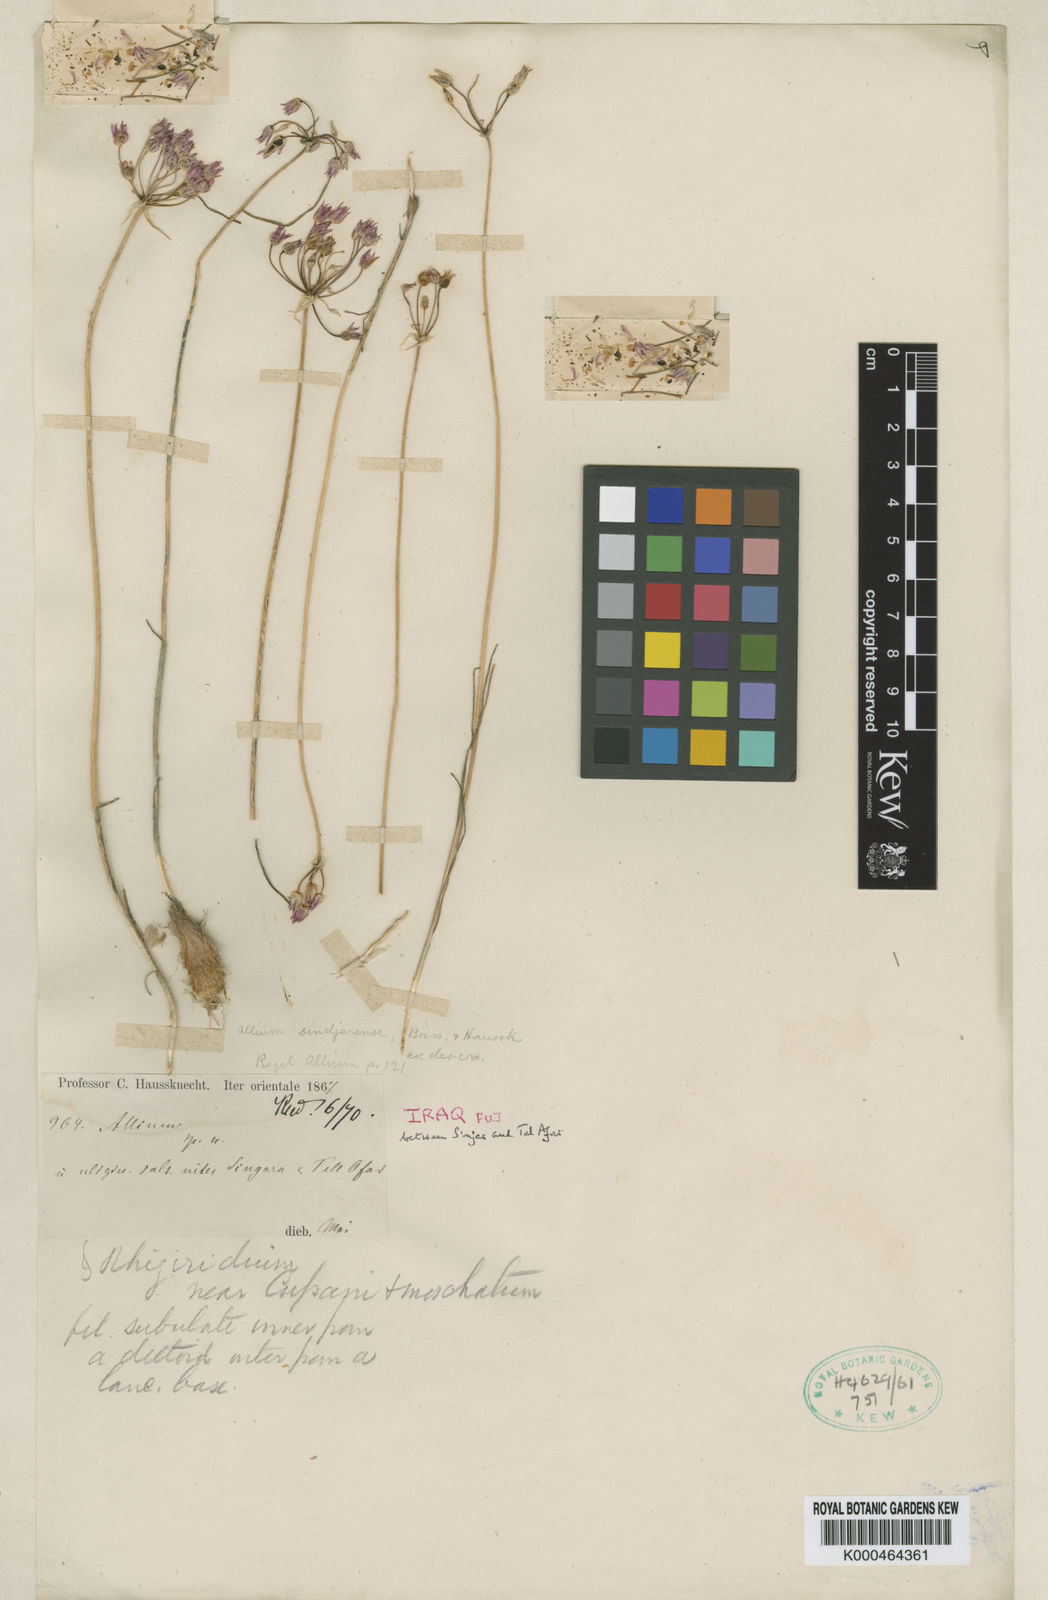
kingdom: Plantae
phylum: Tracheophyta
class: Liliopsida
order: Asparagales
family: Amaryllidaceae
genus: Allium
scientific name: Allium sindjarense
